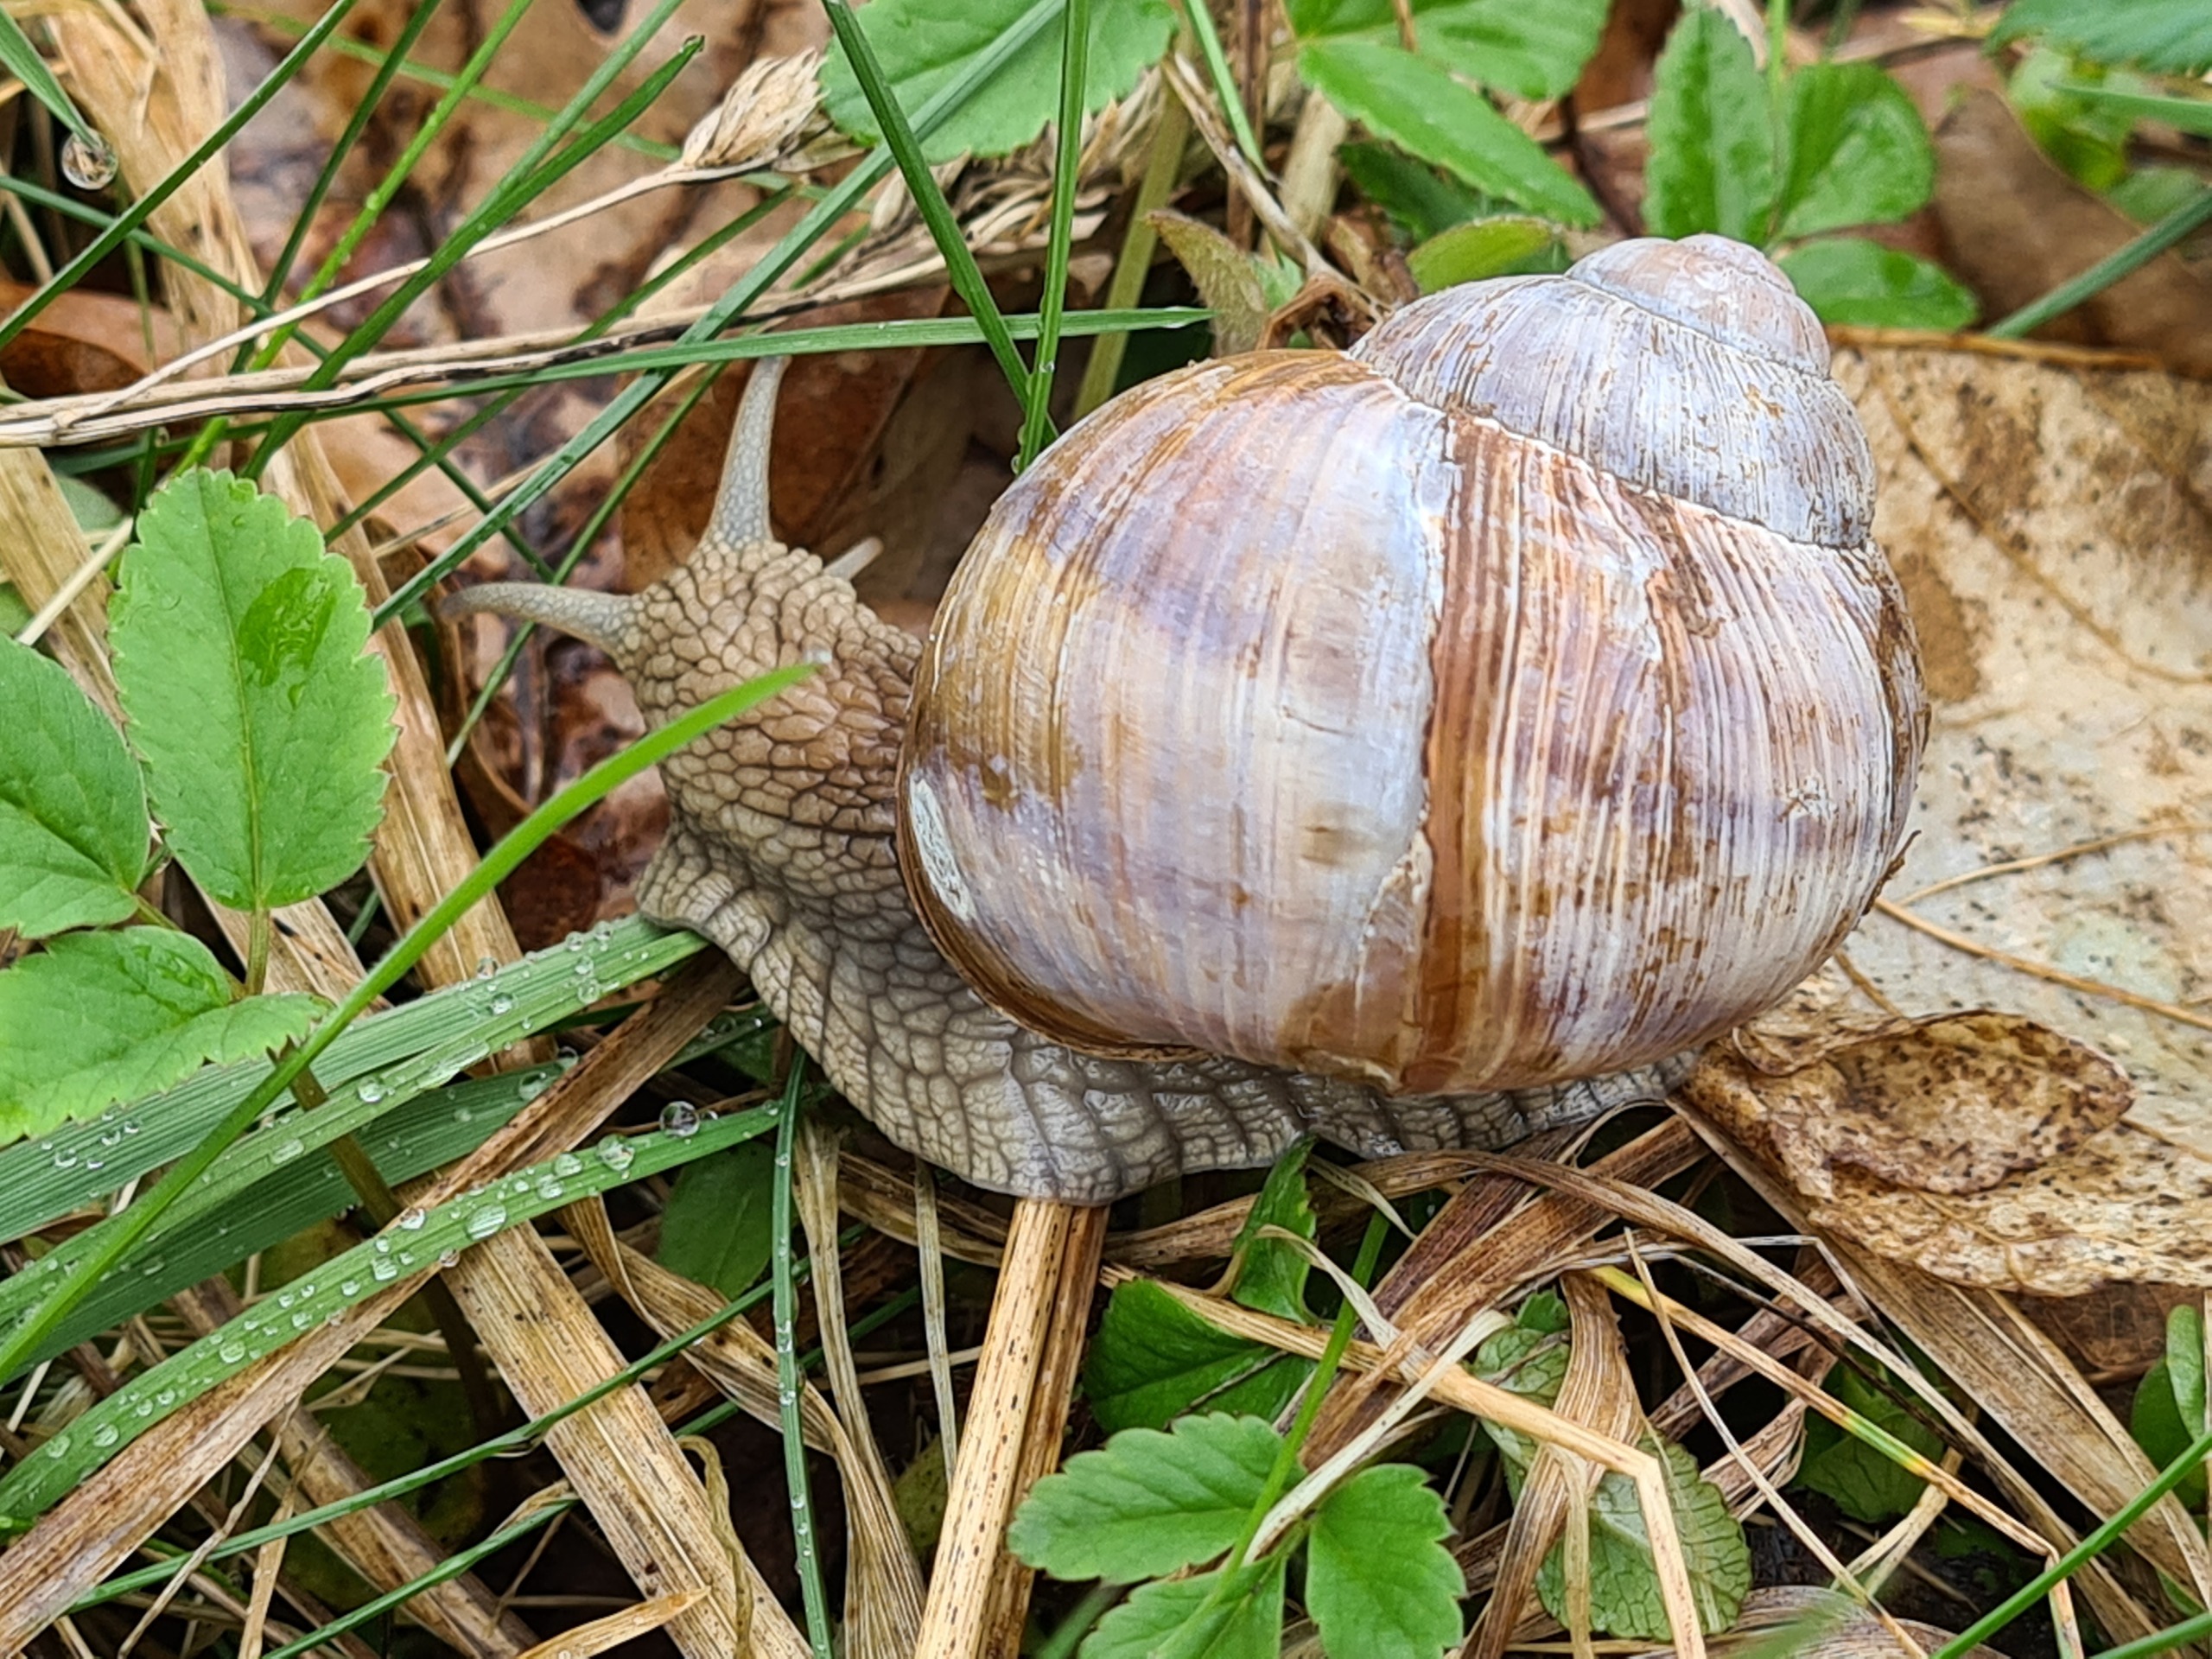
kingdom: Animalia
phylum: Mollusca
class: Gastropoda
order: Stylommatophora
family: Helicidae
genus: Helix
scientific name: Helix pomatia
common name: Vinbjergsnegl
